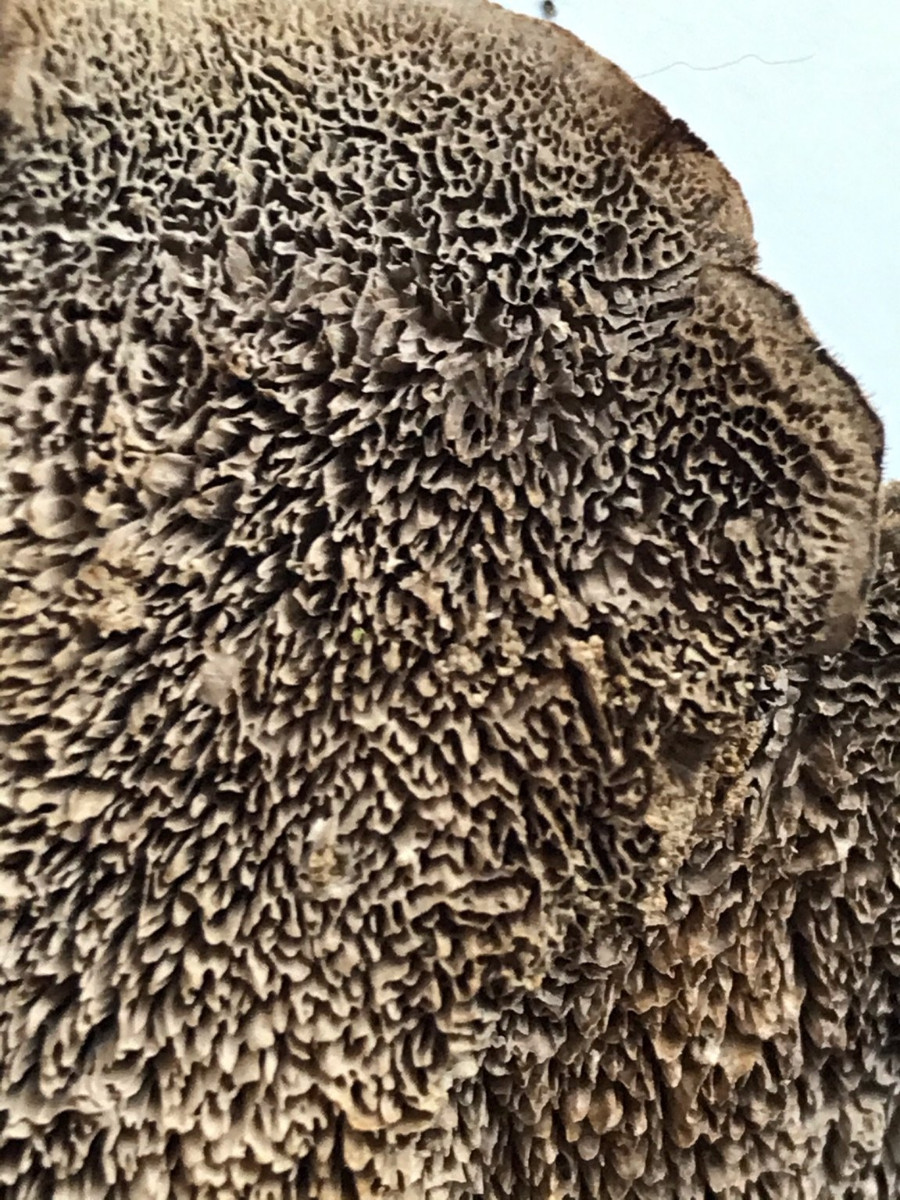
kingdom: Fungi
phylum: Basidiomycota
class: Agaricomycetes
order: Polyporales
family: Cerrenaceae
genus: Cerrena
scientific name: Cerrena unicolor
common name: ensfarvet læderporesvamp
